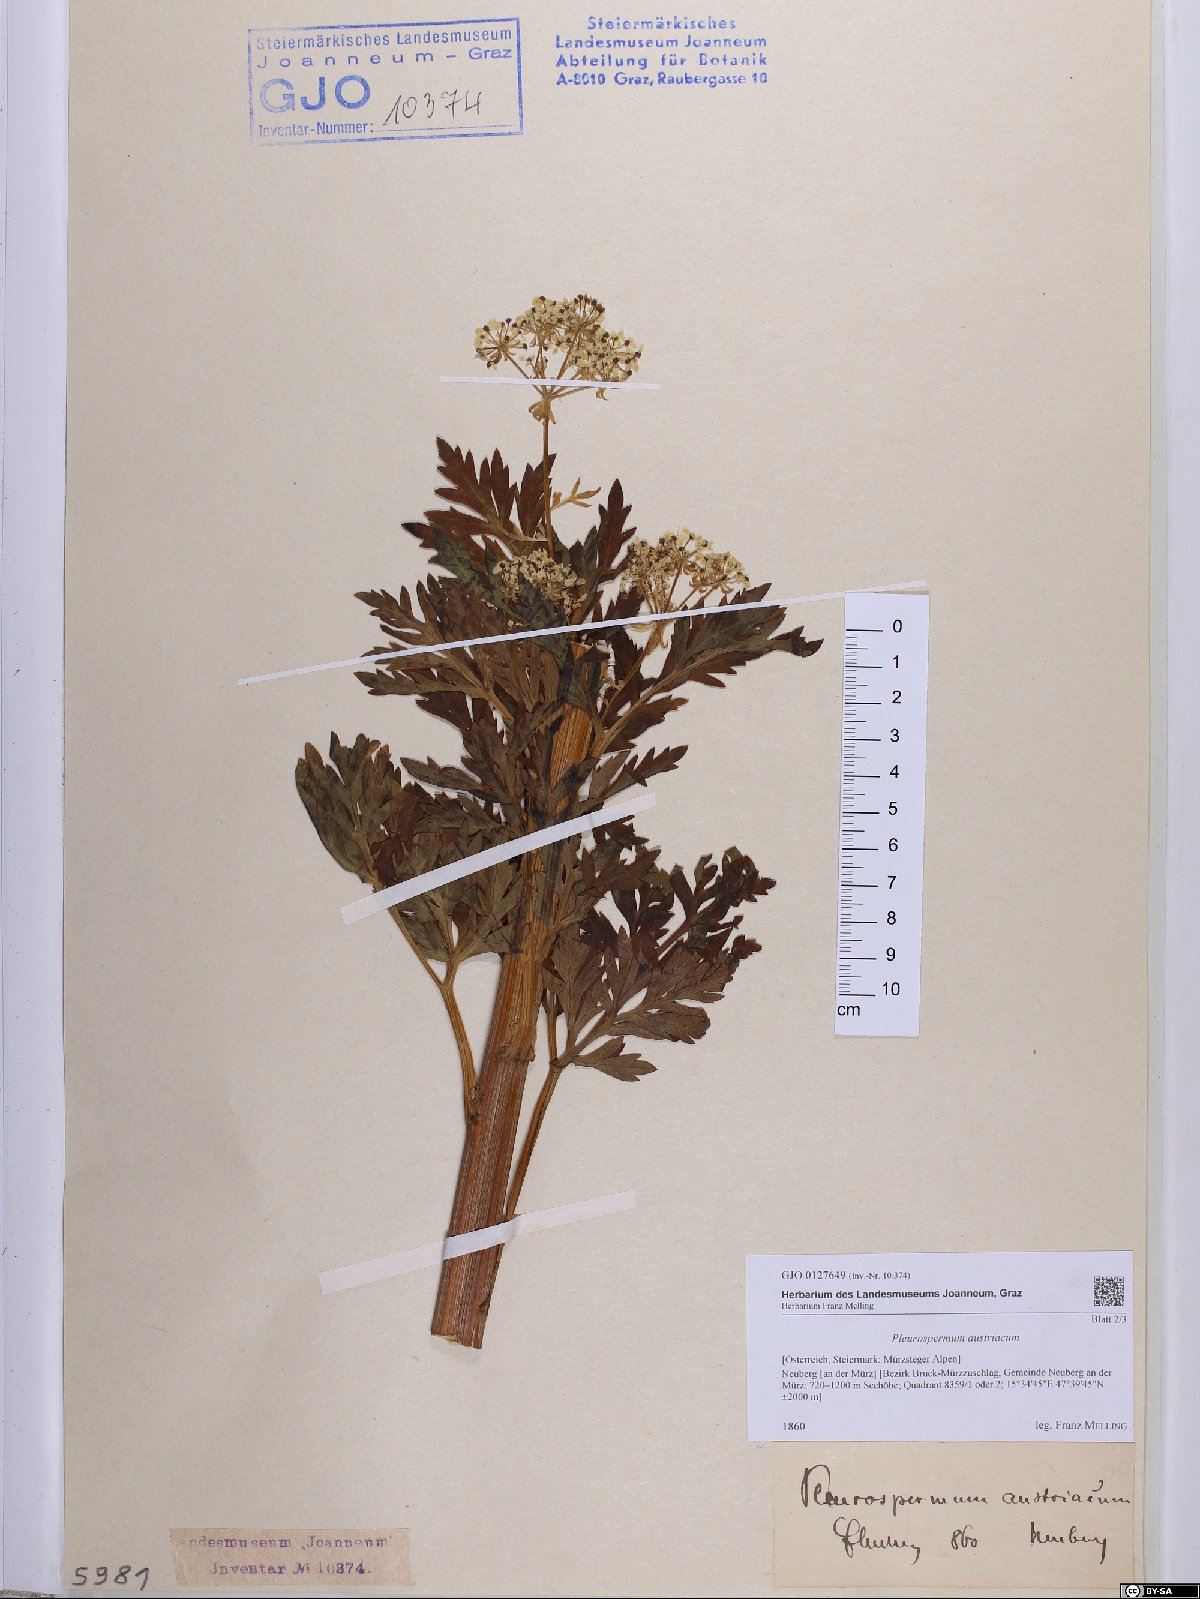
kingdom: Plantae
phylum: Tracheophyta
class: Magnoliopsida
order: Apiales
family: Apiaceae
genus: Pleurospermum
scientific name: Pleurospermum austriacum
